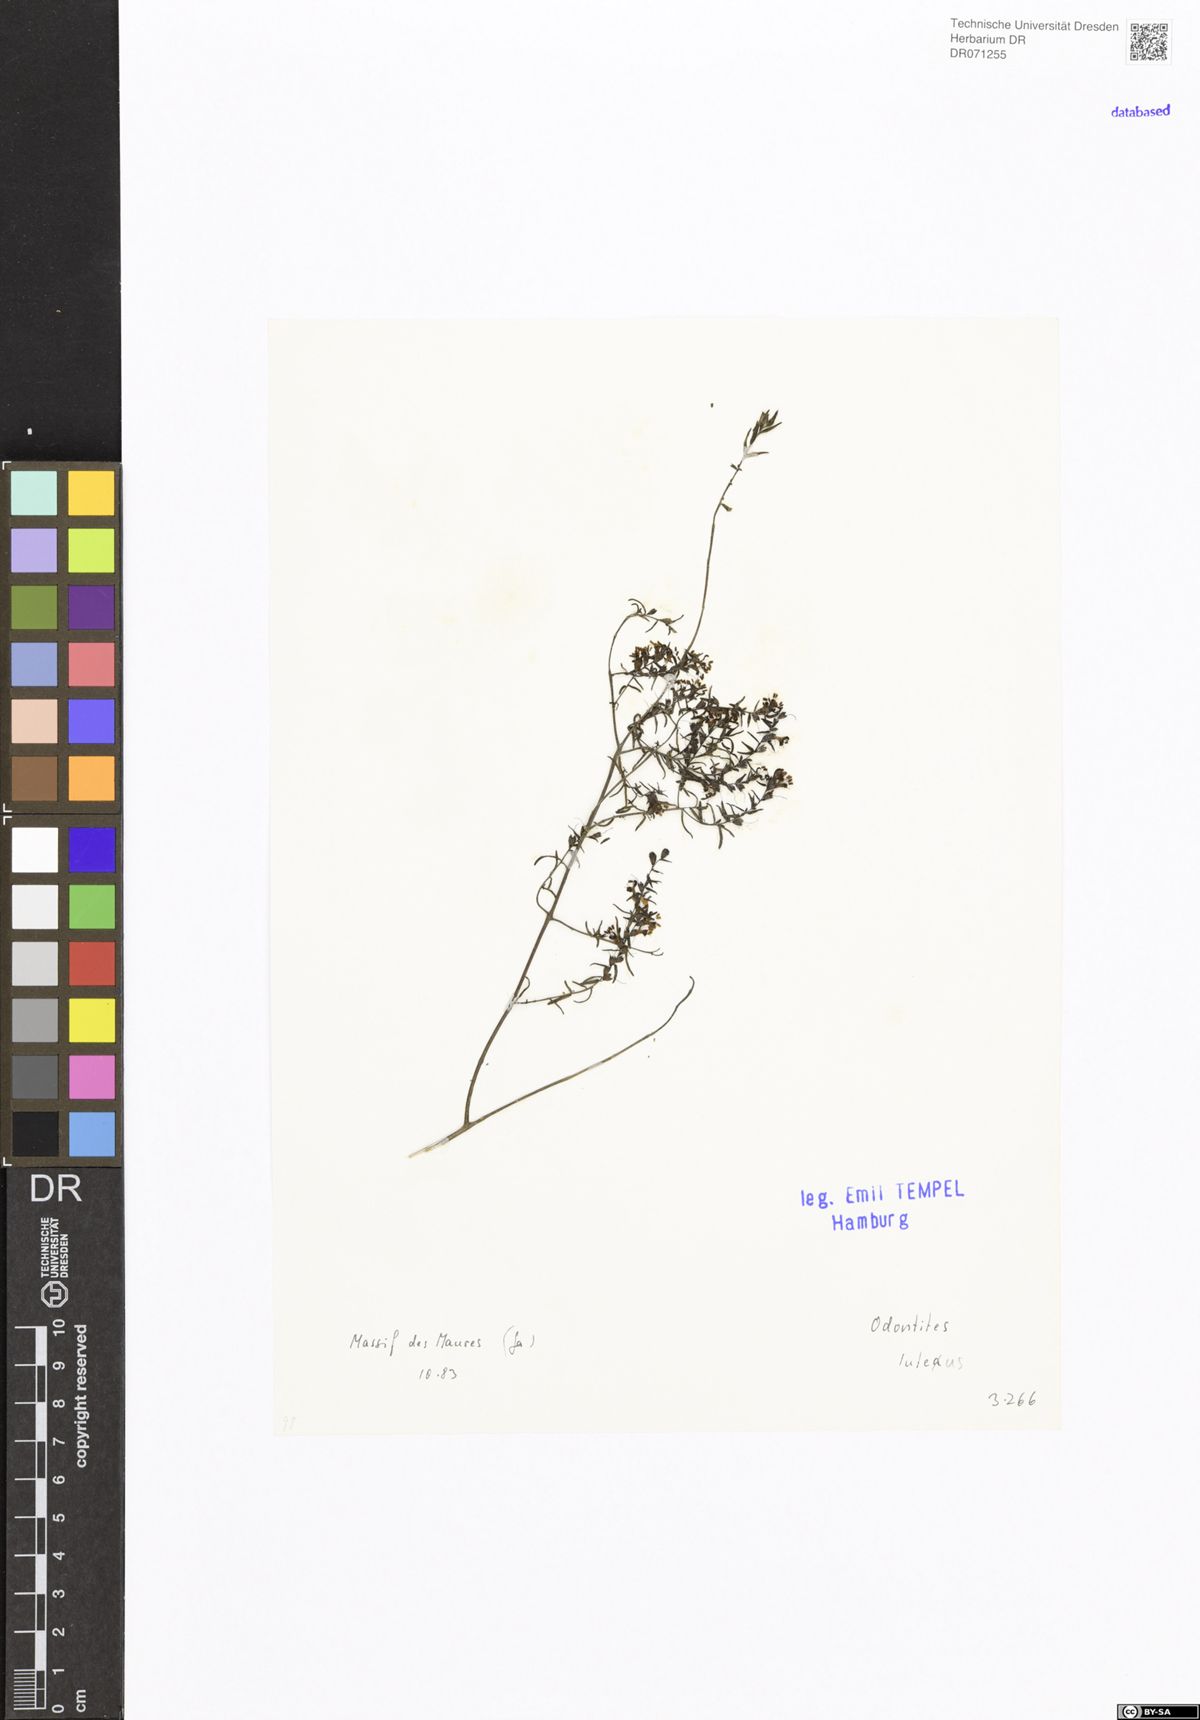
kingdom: Plantae
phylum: Tracheophyta
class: Magnoliopsida
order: Lamiales
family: Orobanchaceae
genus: Odontites
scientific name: Odontites luteus
